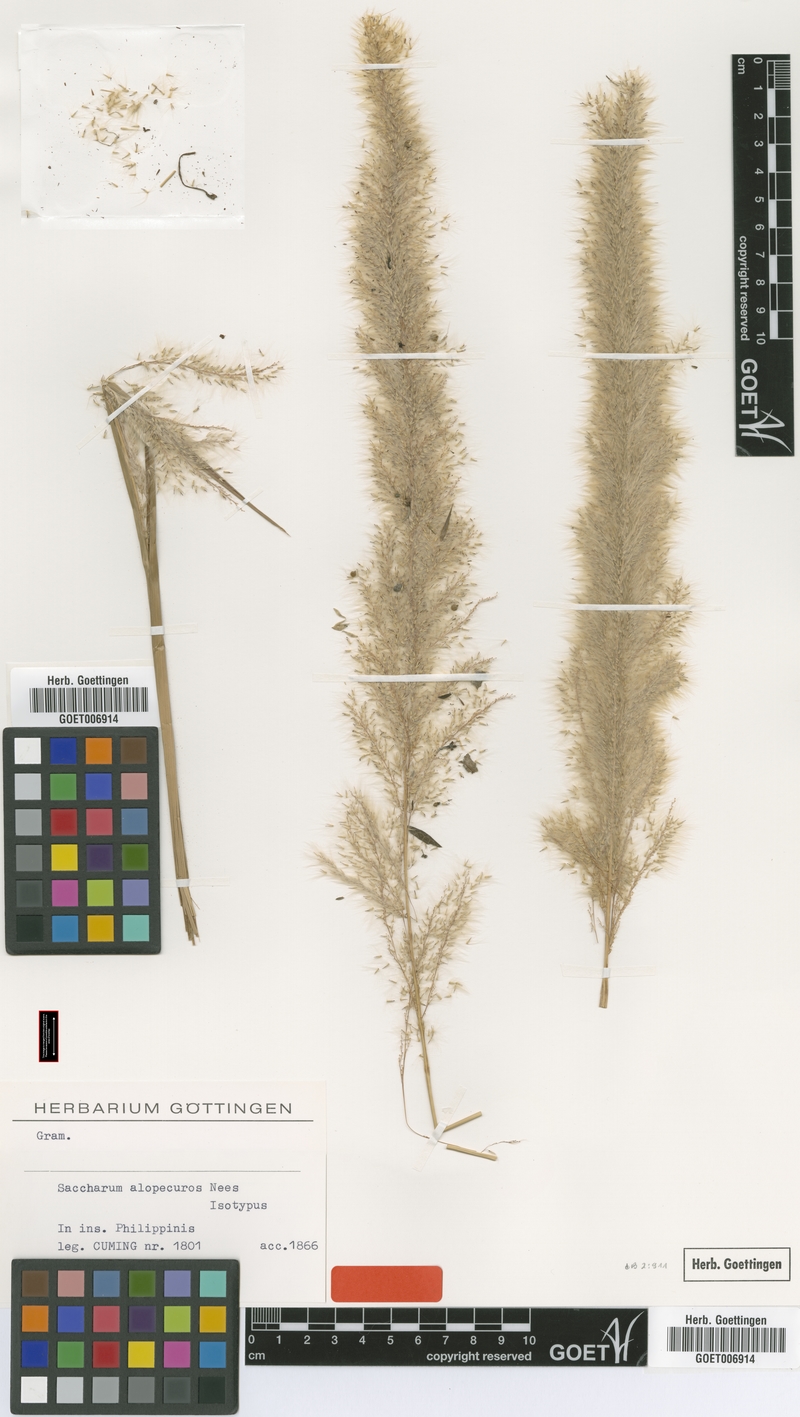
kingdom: Plantae
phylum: Tracheophyta
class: Liliopsida
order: Poales
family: Poaceae
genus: Imperata
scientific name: Imperata cylindrica
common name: Cogongrass
